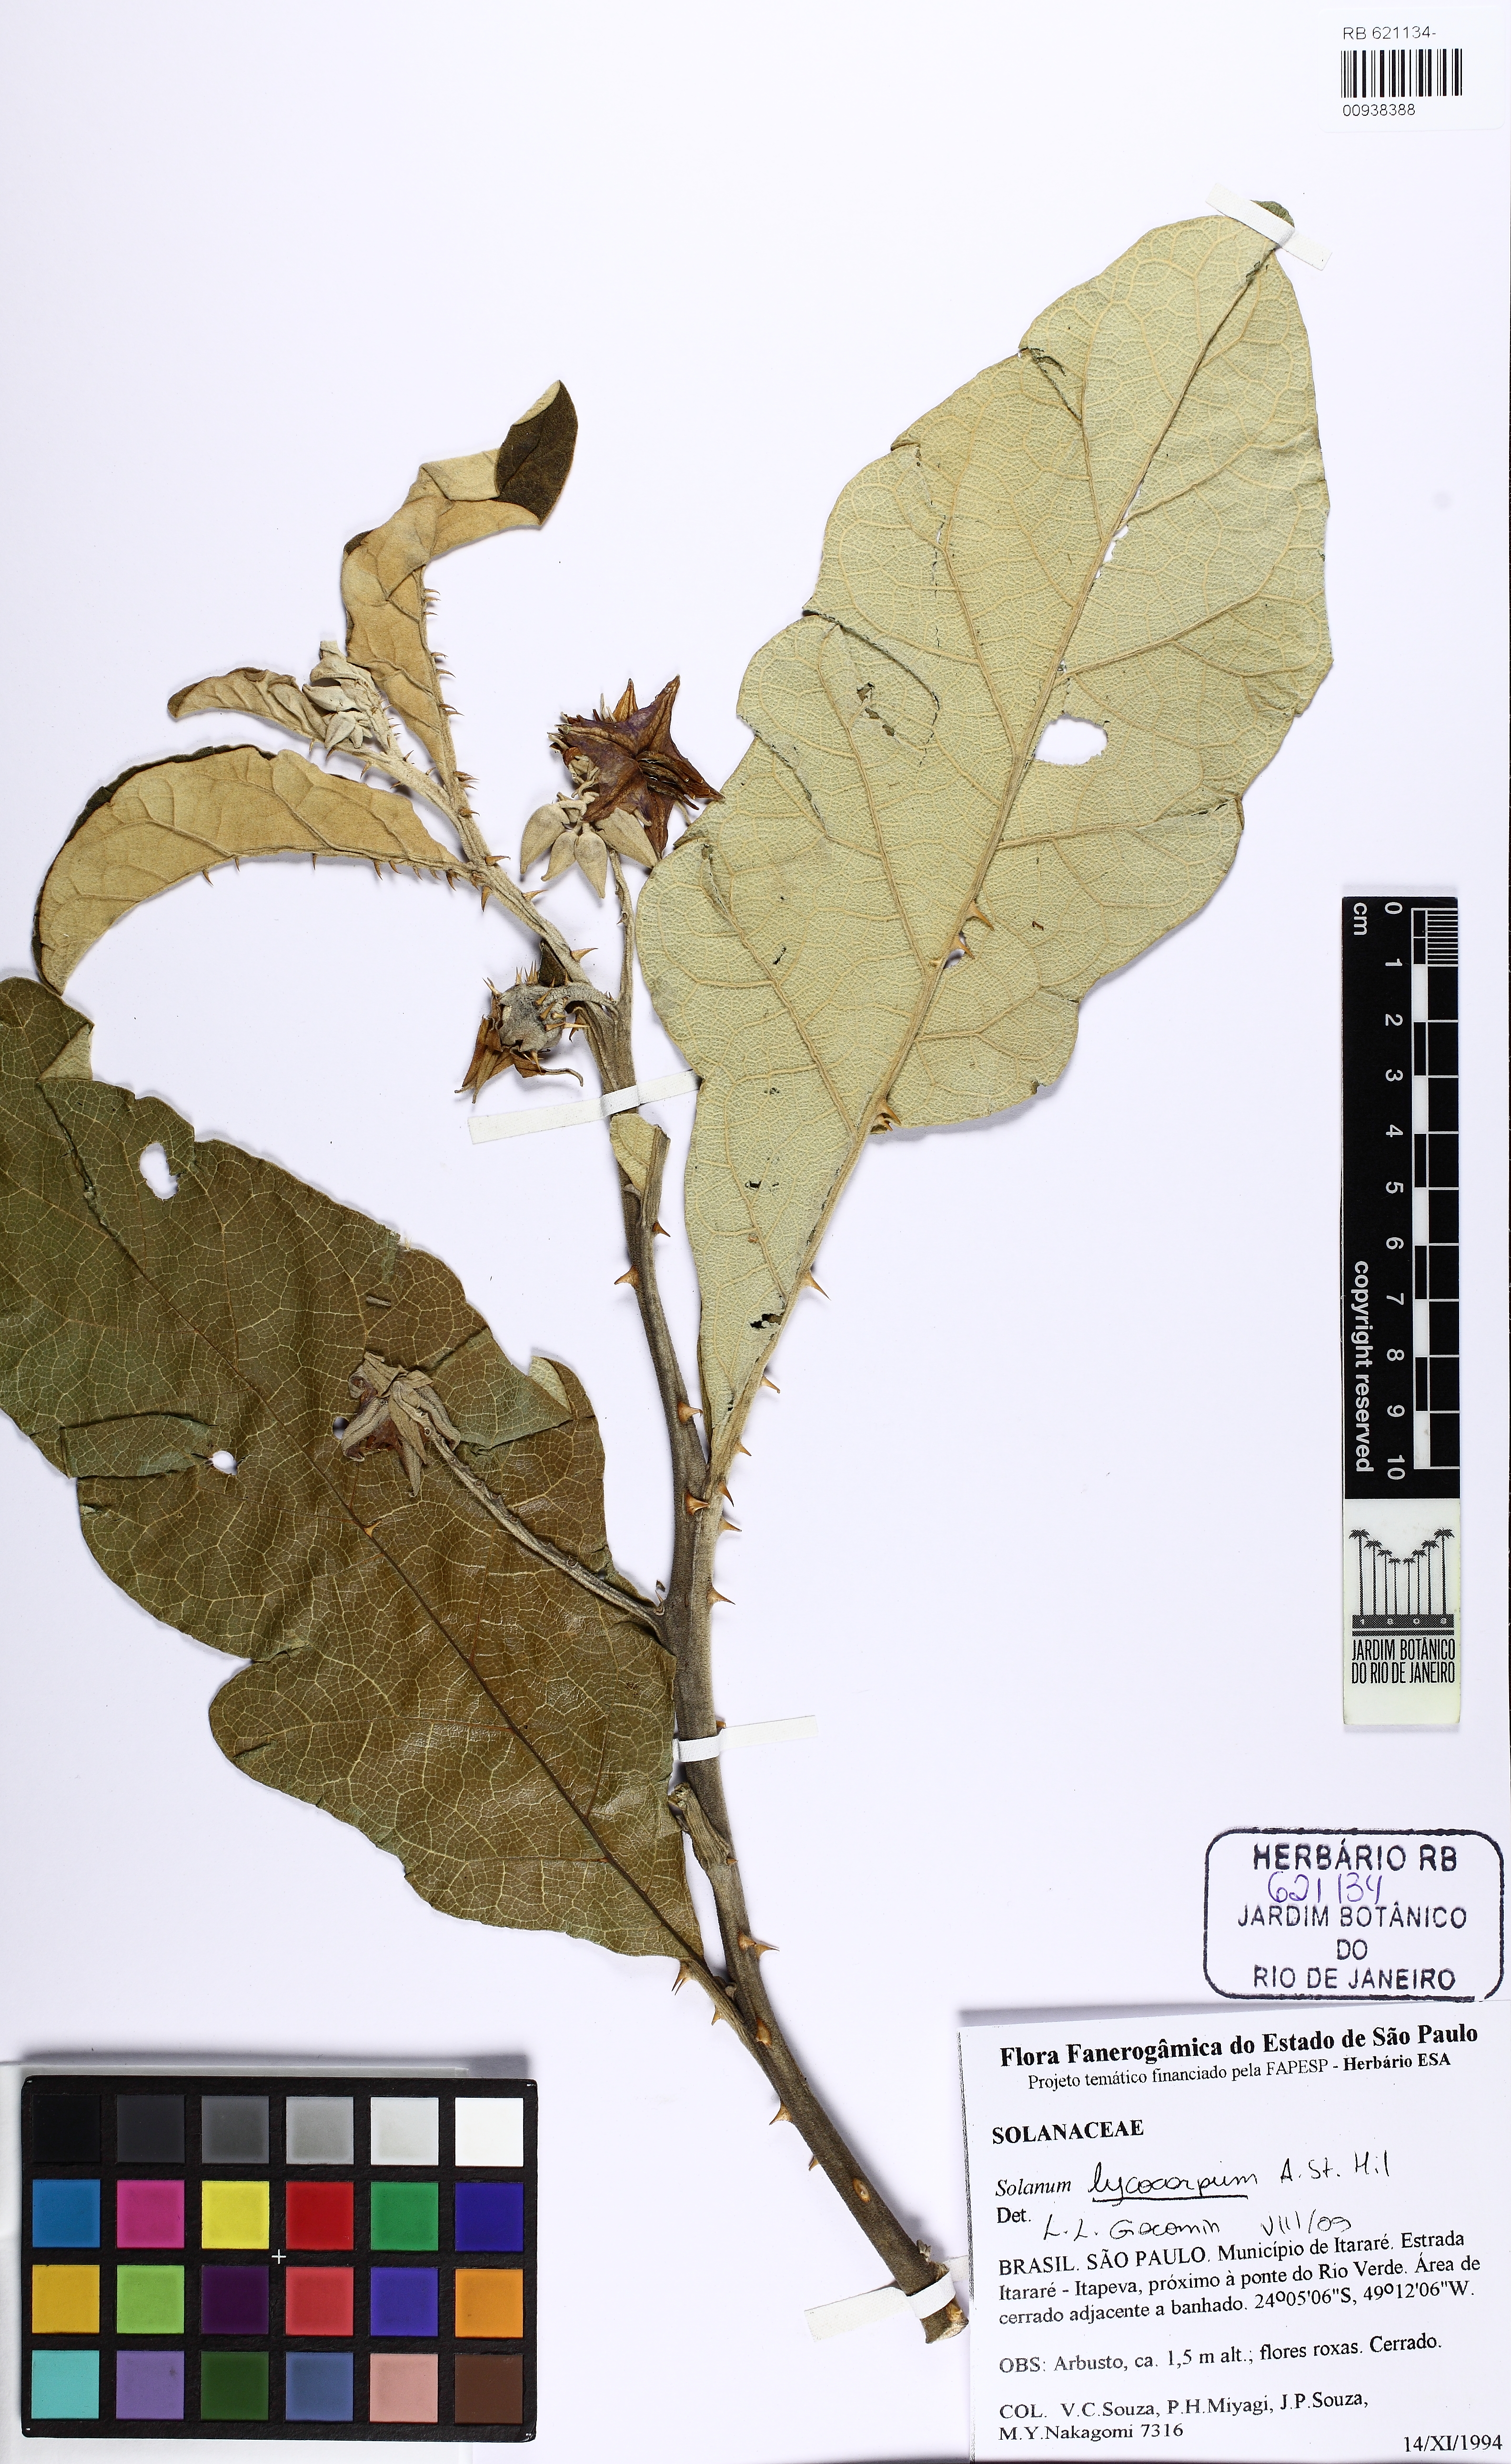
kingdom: Plantae
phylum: Tracheophyta
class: Magnoliopsida
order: Solanales
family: Solanaceae
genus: Solanum
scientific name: Solanum lycocarpum
